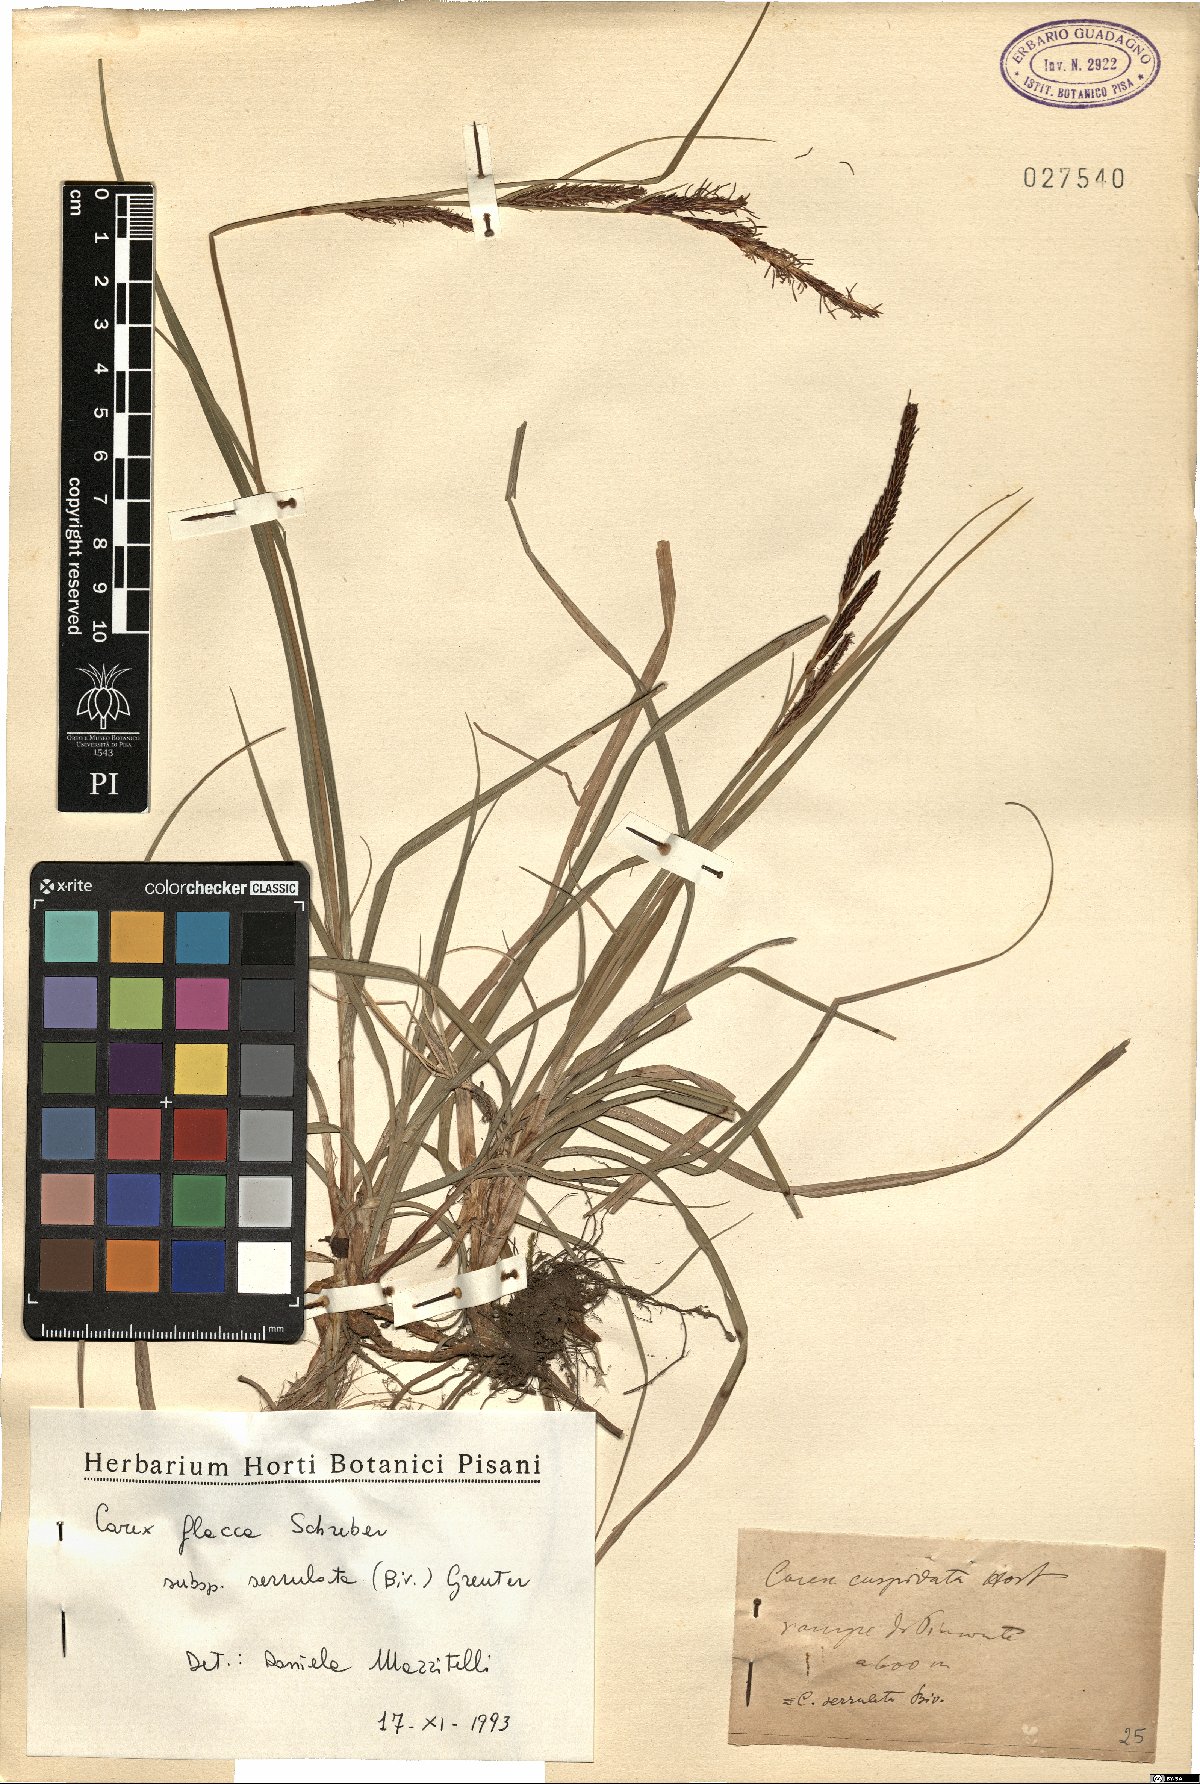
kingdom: Plantae
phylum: Tracheophyta
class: Liliopsida
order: Poales
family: Cyperaceae
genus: Carex
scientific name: Carex flacca
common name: Glaucous sedge
